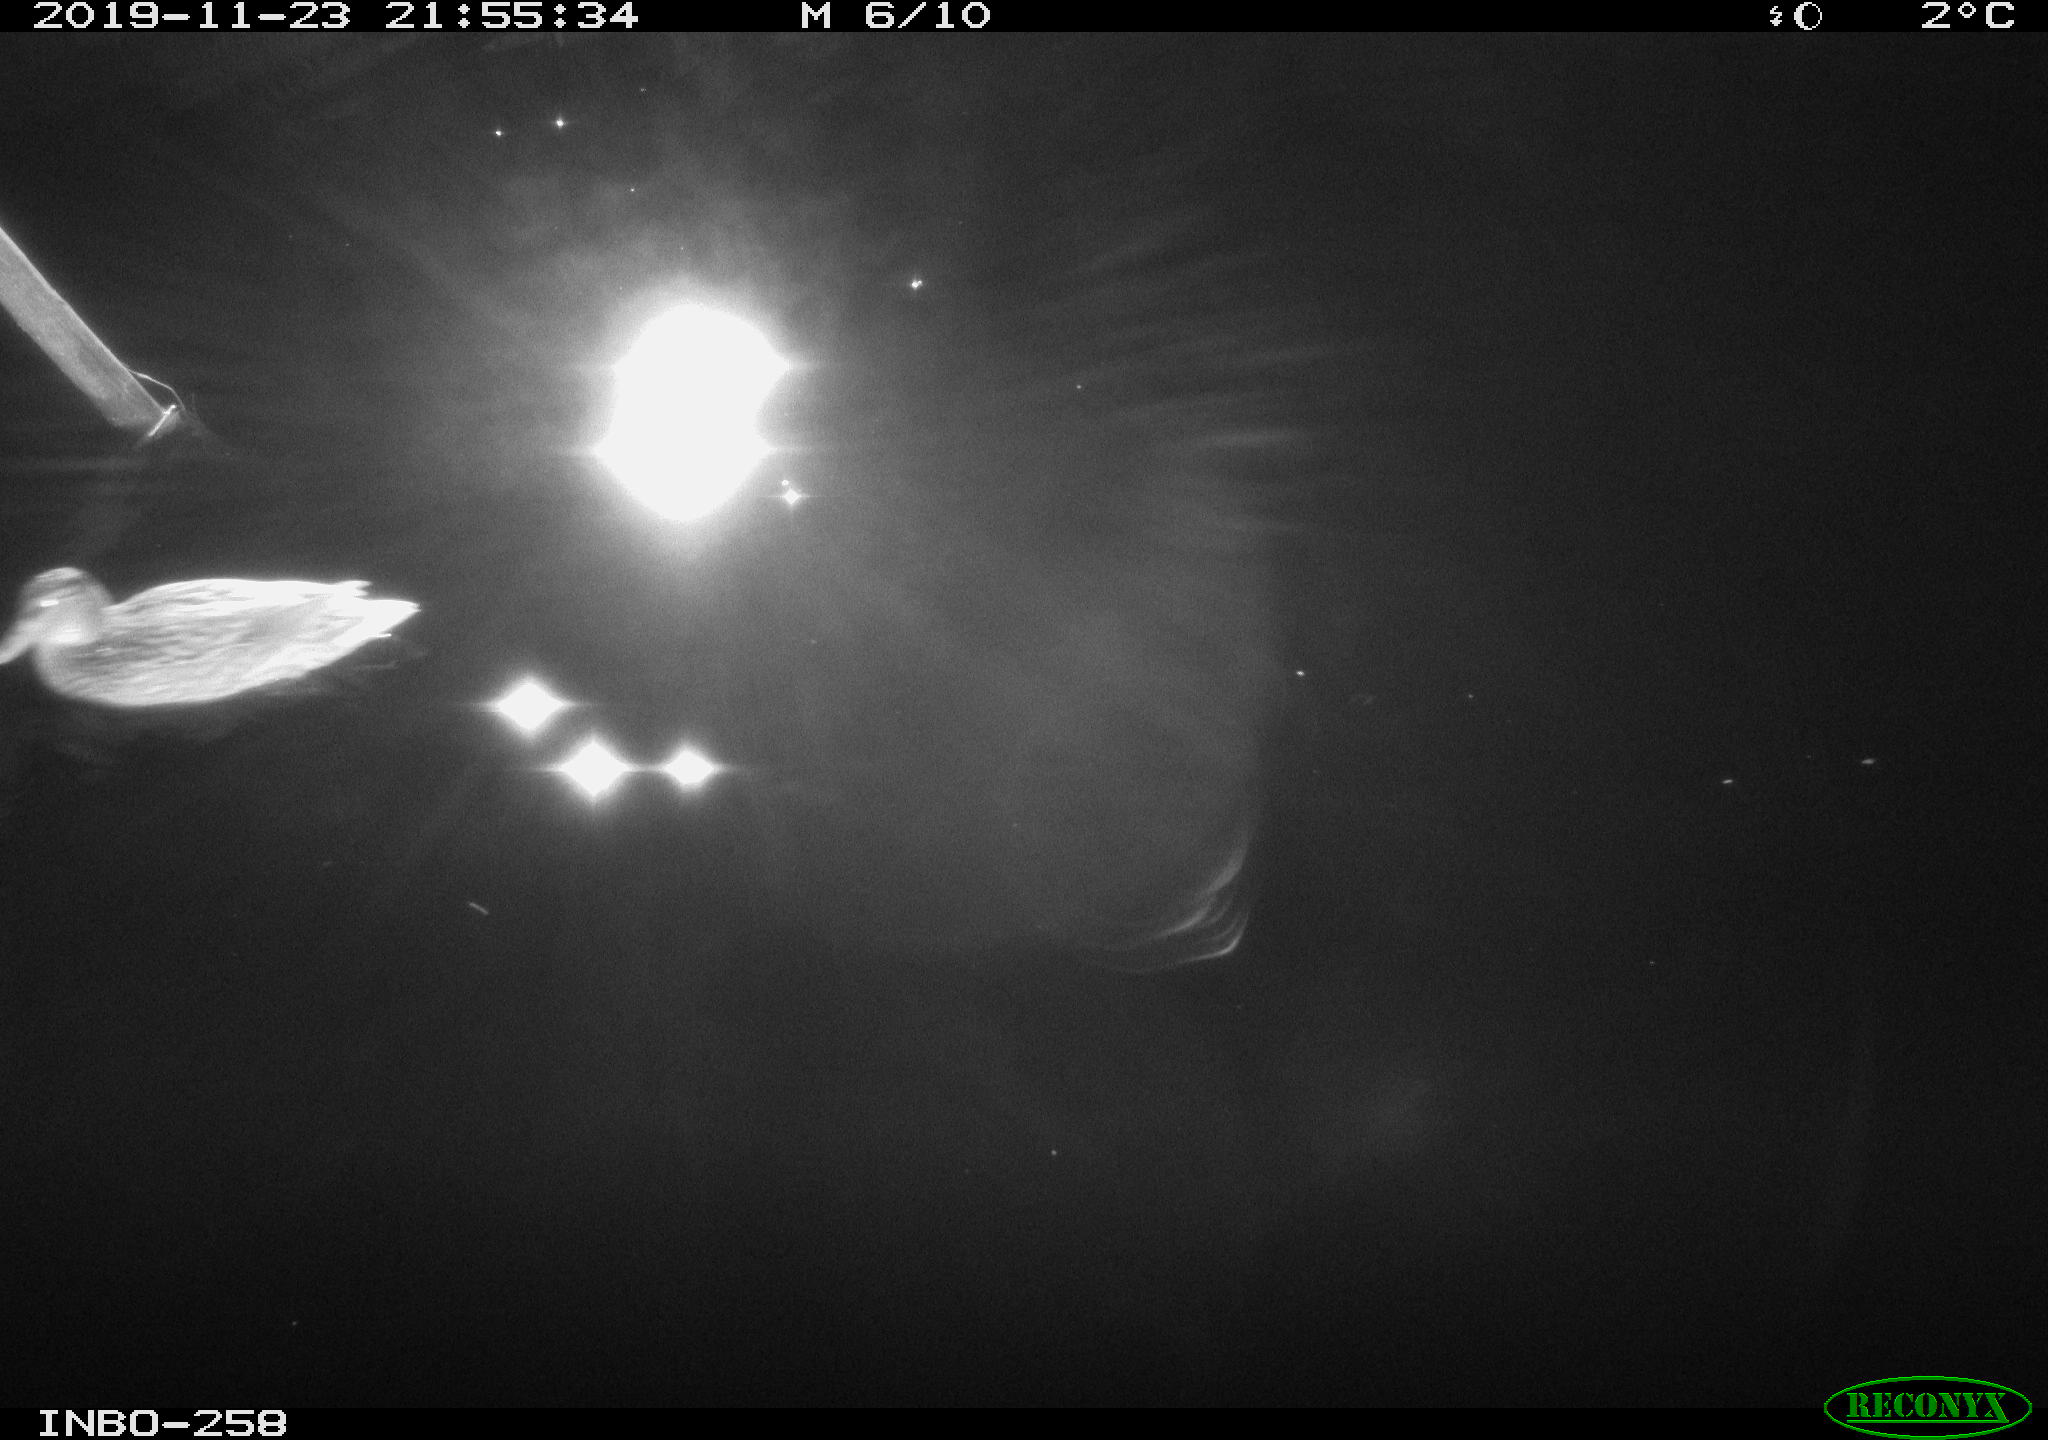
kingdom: Animalia
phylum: Chordata
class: Aves
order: Anseriformes
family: Anatidae
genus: Anas
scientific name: Anas platyrhynchos
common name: Mallard
